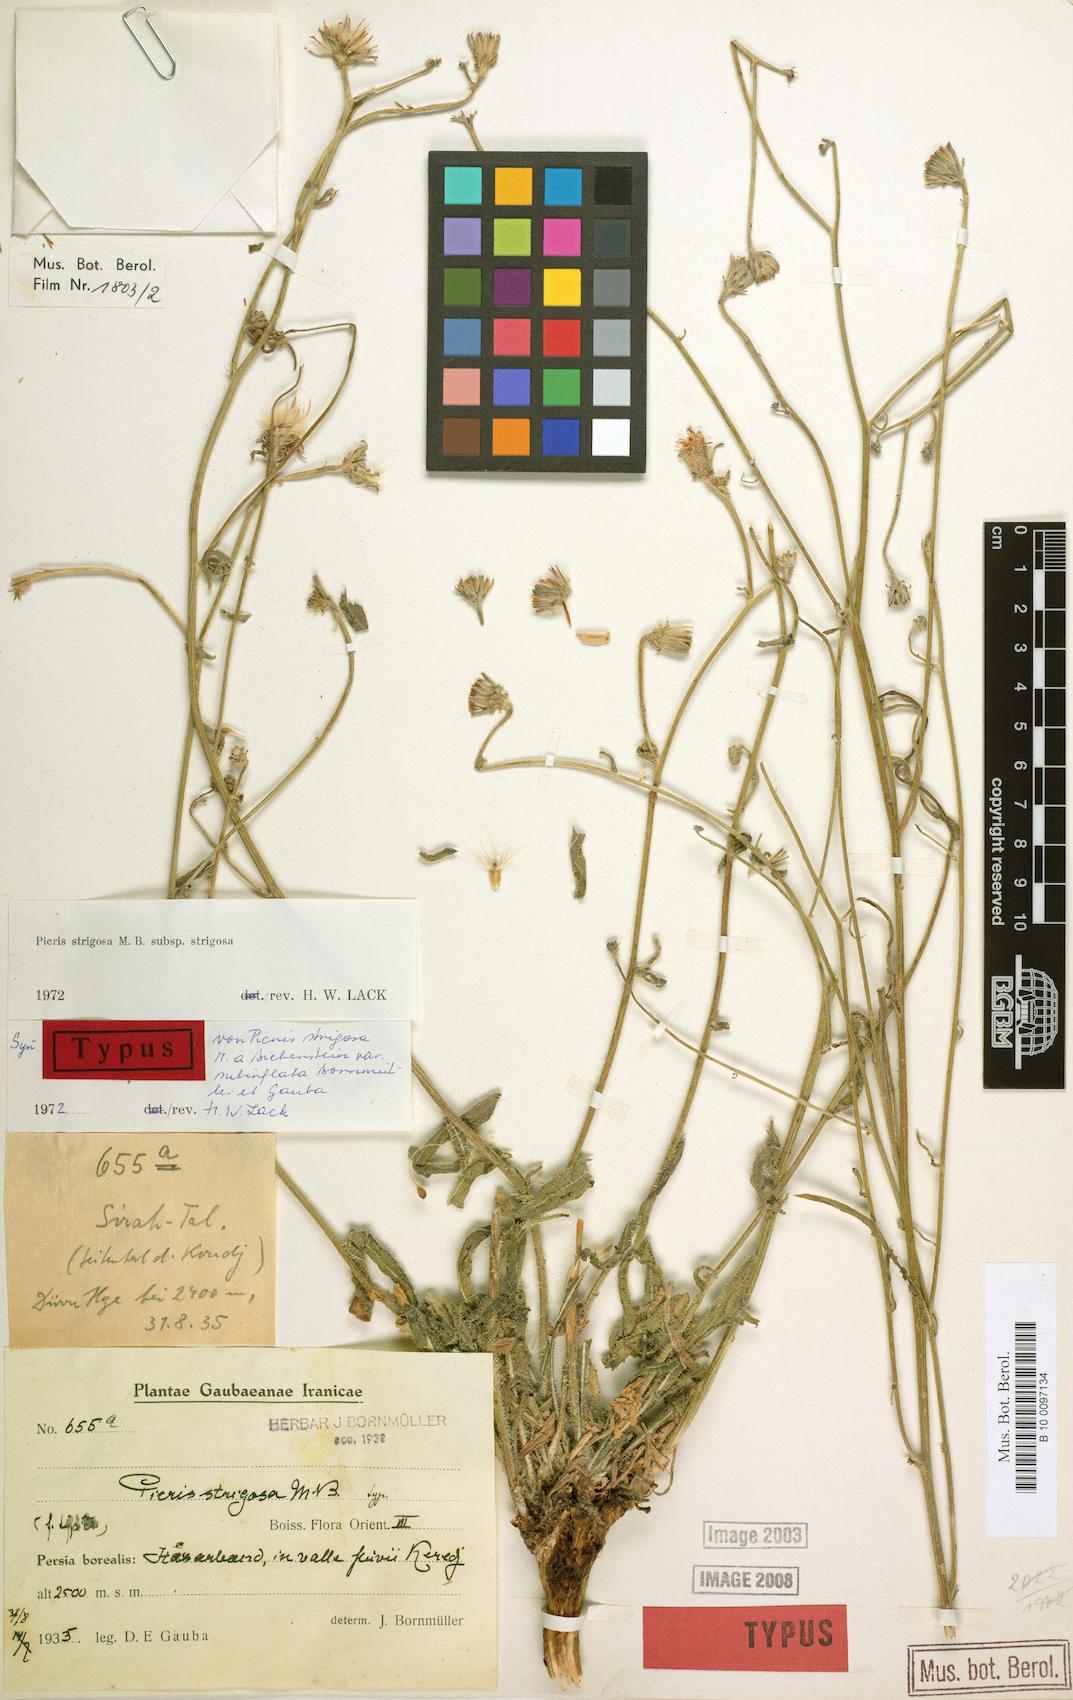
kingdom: Plantae
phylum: Tracheophyta
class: Magnoliopsida
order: Asterales
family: Asteraceae
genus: Picris
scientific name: Picris strigosa
